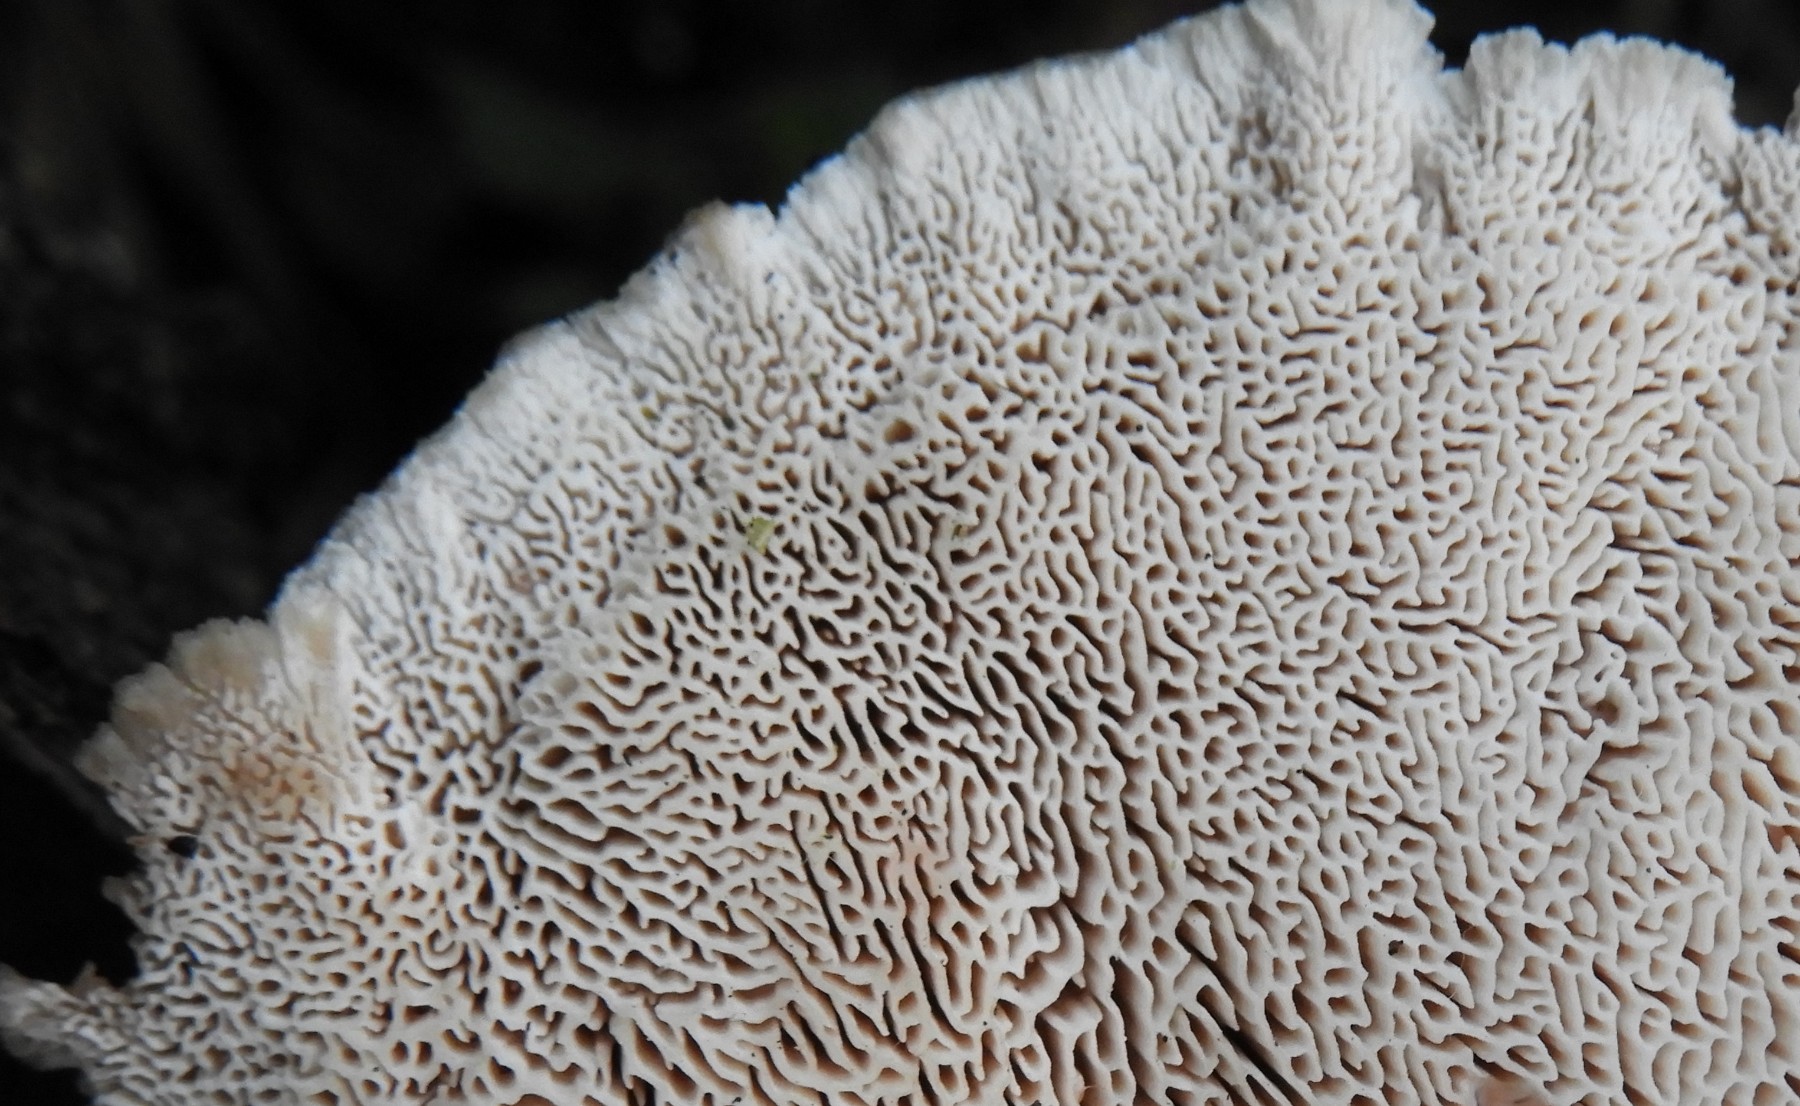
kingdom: Fungi
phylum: Basidiomycota
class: Agaricomycetes
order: Polyporales
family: Podoscyphaceae
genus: Abortiporus
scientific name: Abortiporus biennis
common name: rødmende pjalteporesvamp
